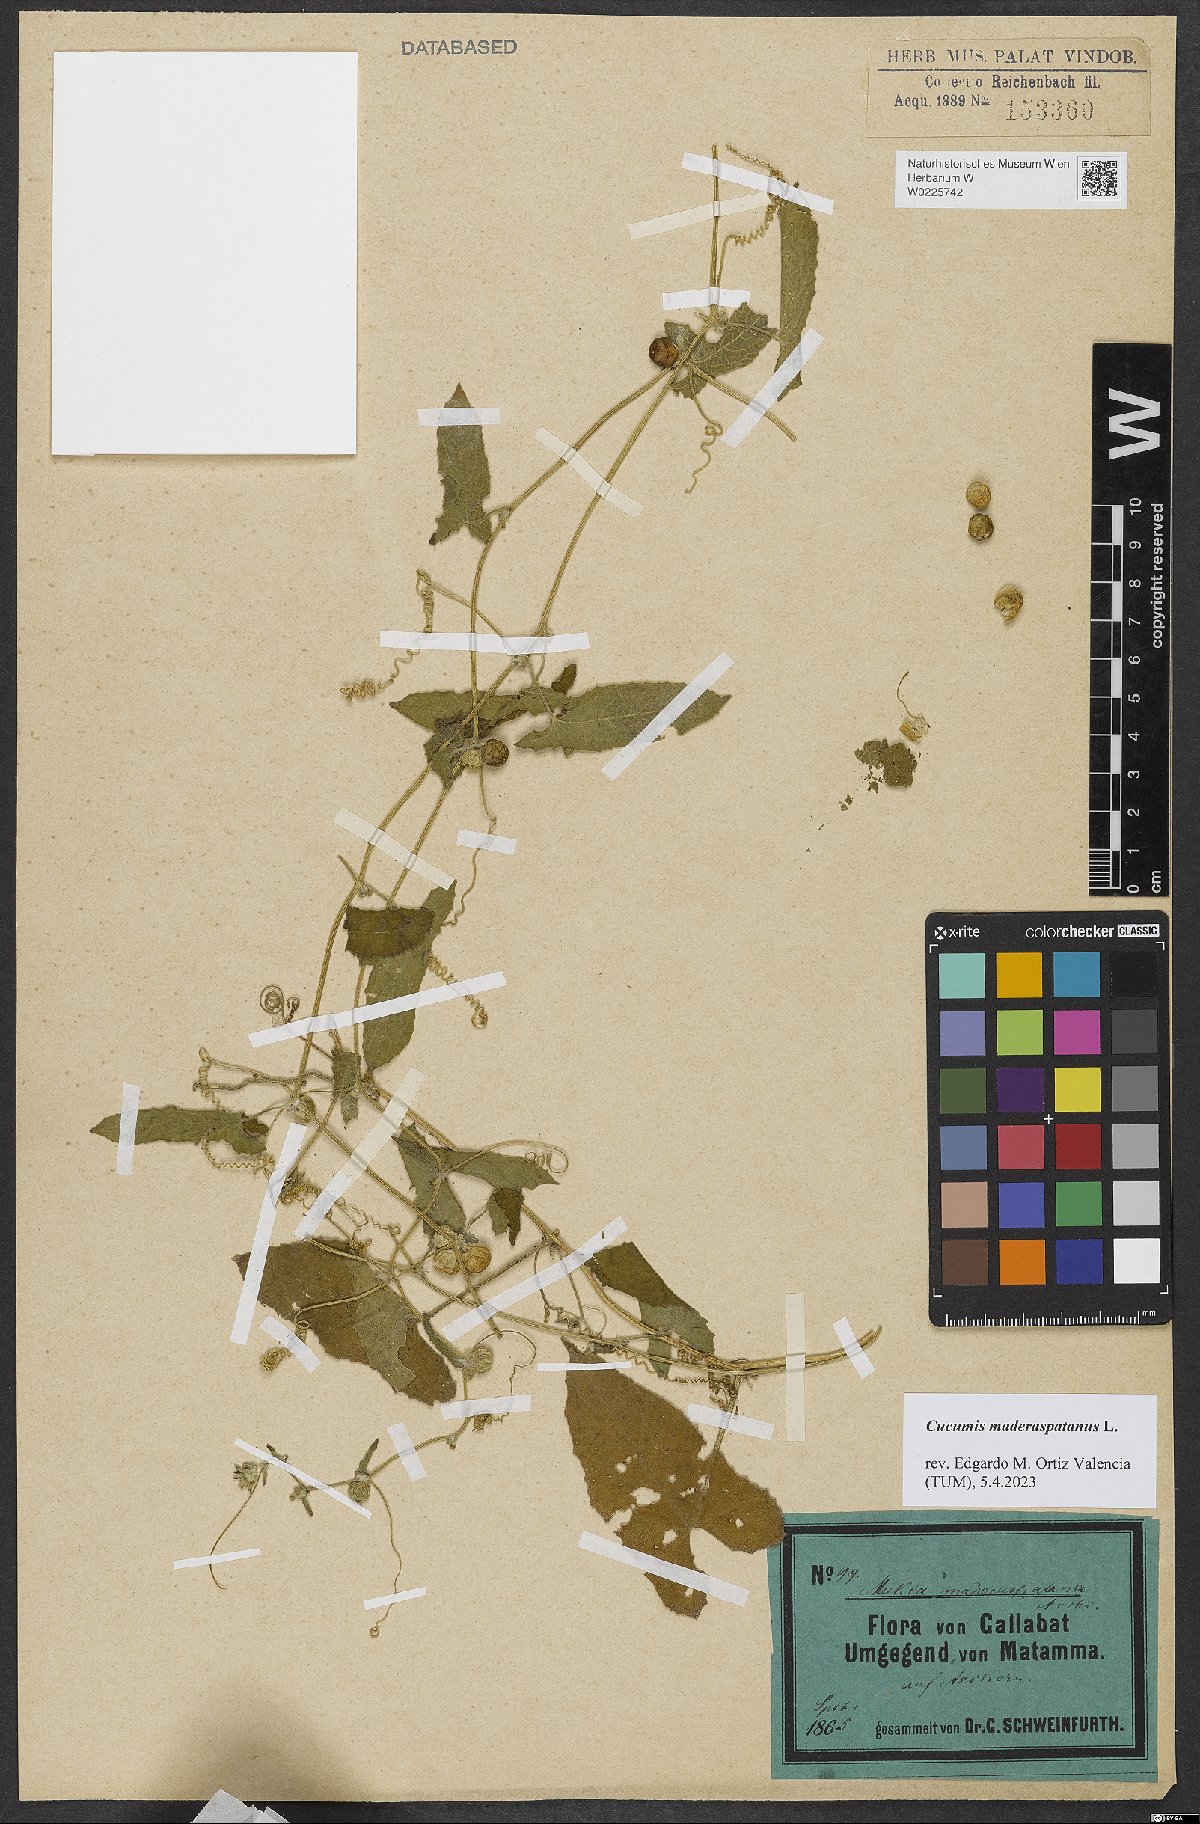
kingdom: Plantae
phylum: Tracheophyta
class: Magnoliopsida
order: Cucurbitales
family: Cucurbitaceae
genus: Cucumis
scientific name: Cucumis maderaspatanus
